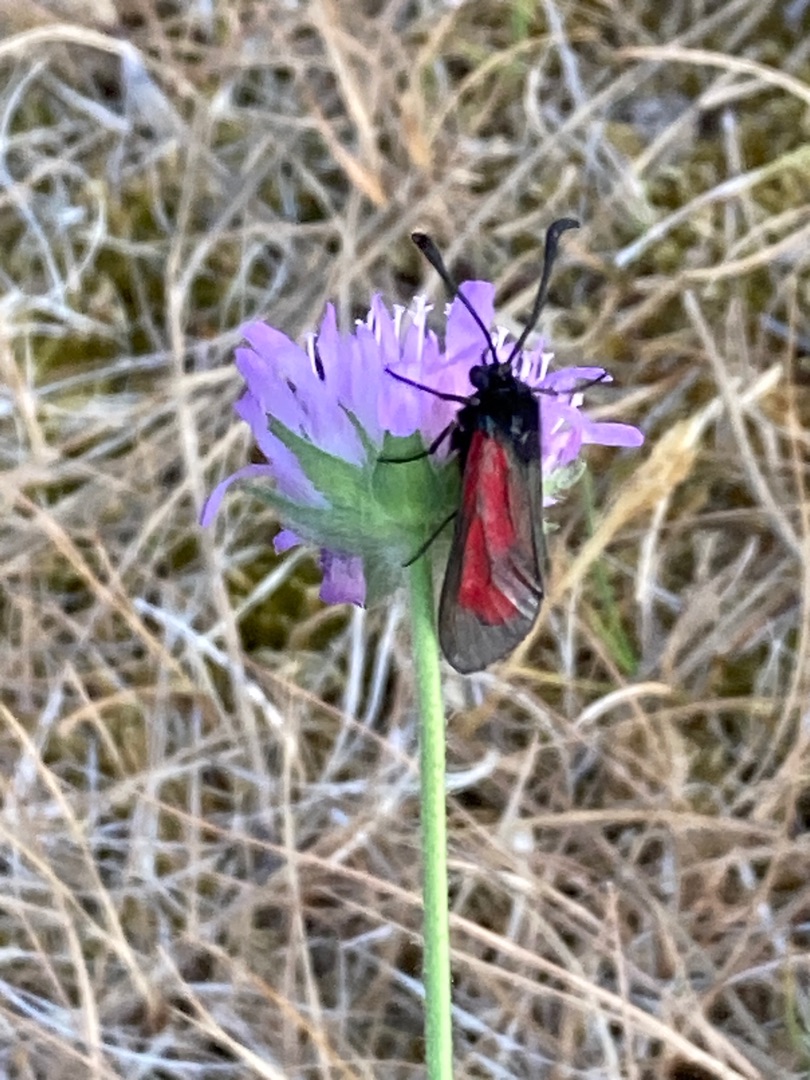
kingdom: Animalia
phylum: Arthropoda
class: Insecta
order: Lepidoptera
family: Zygaenidae
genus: Zygaena
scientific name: Zygaena minos
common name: Pimpernelkøllesværmer
